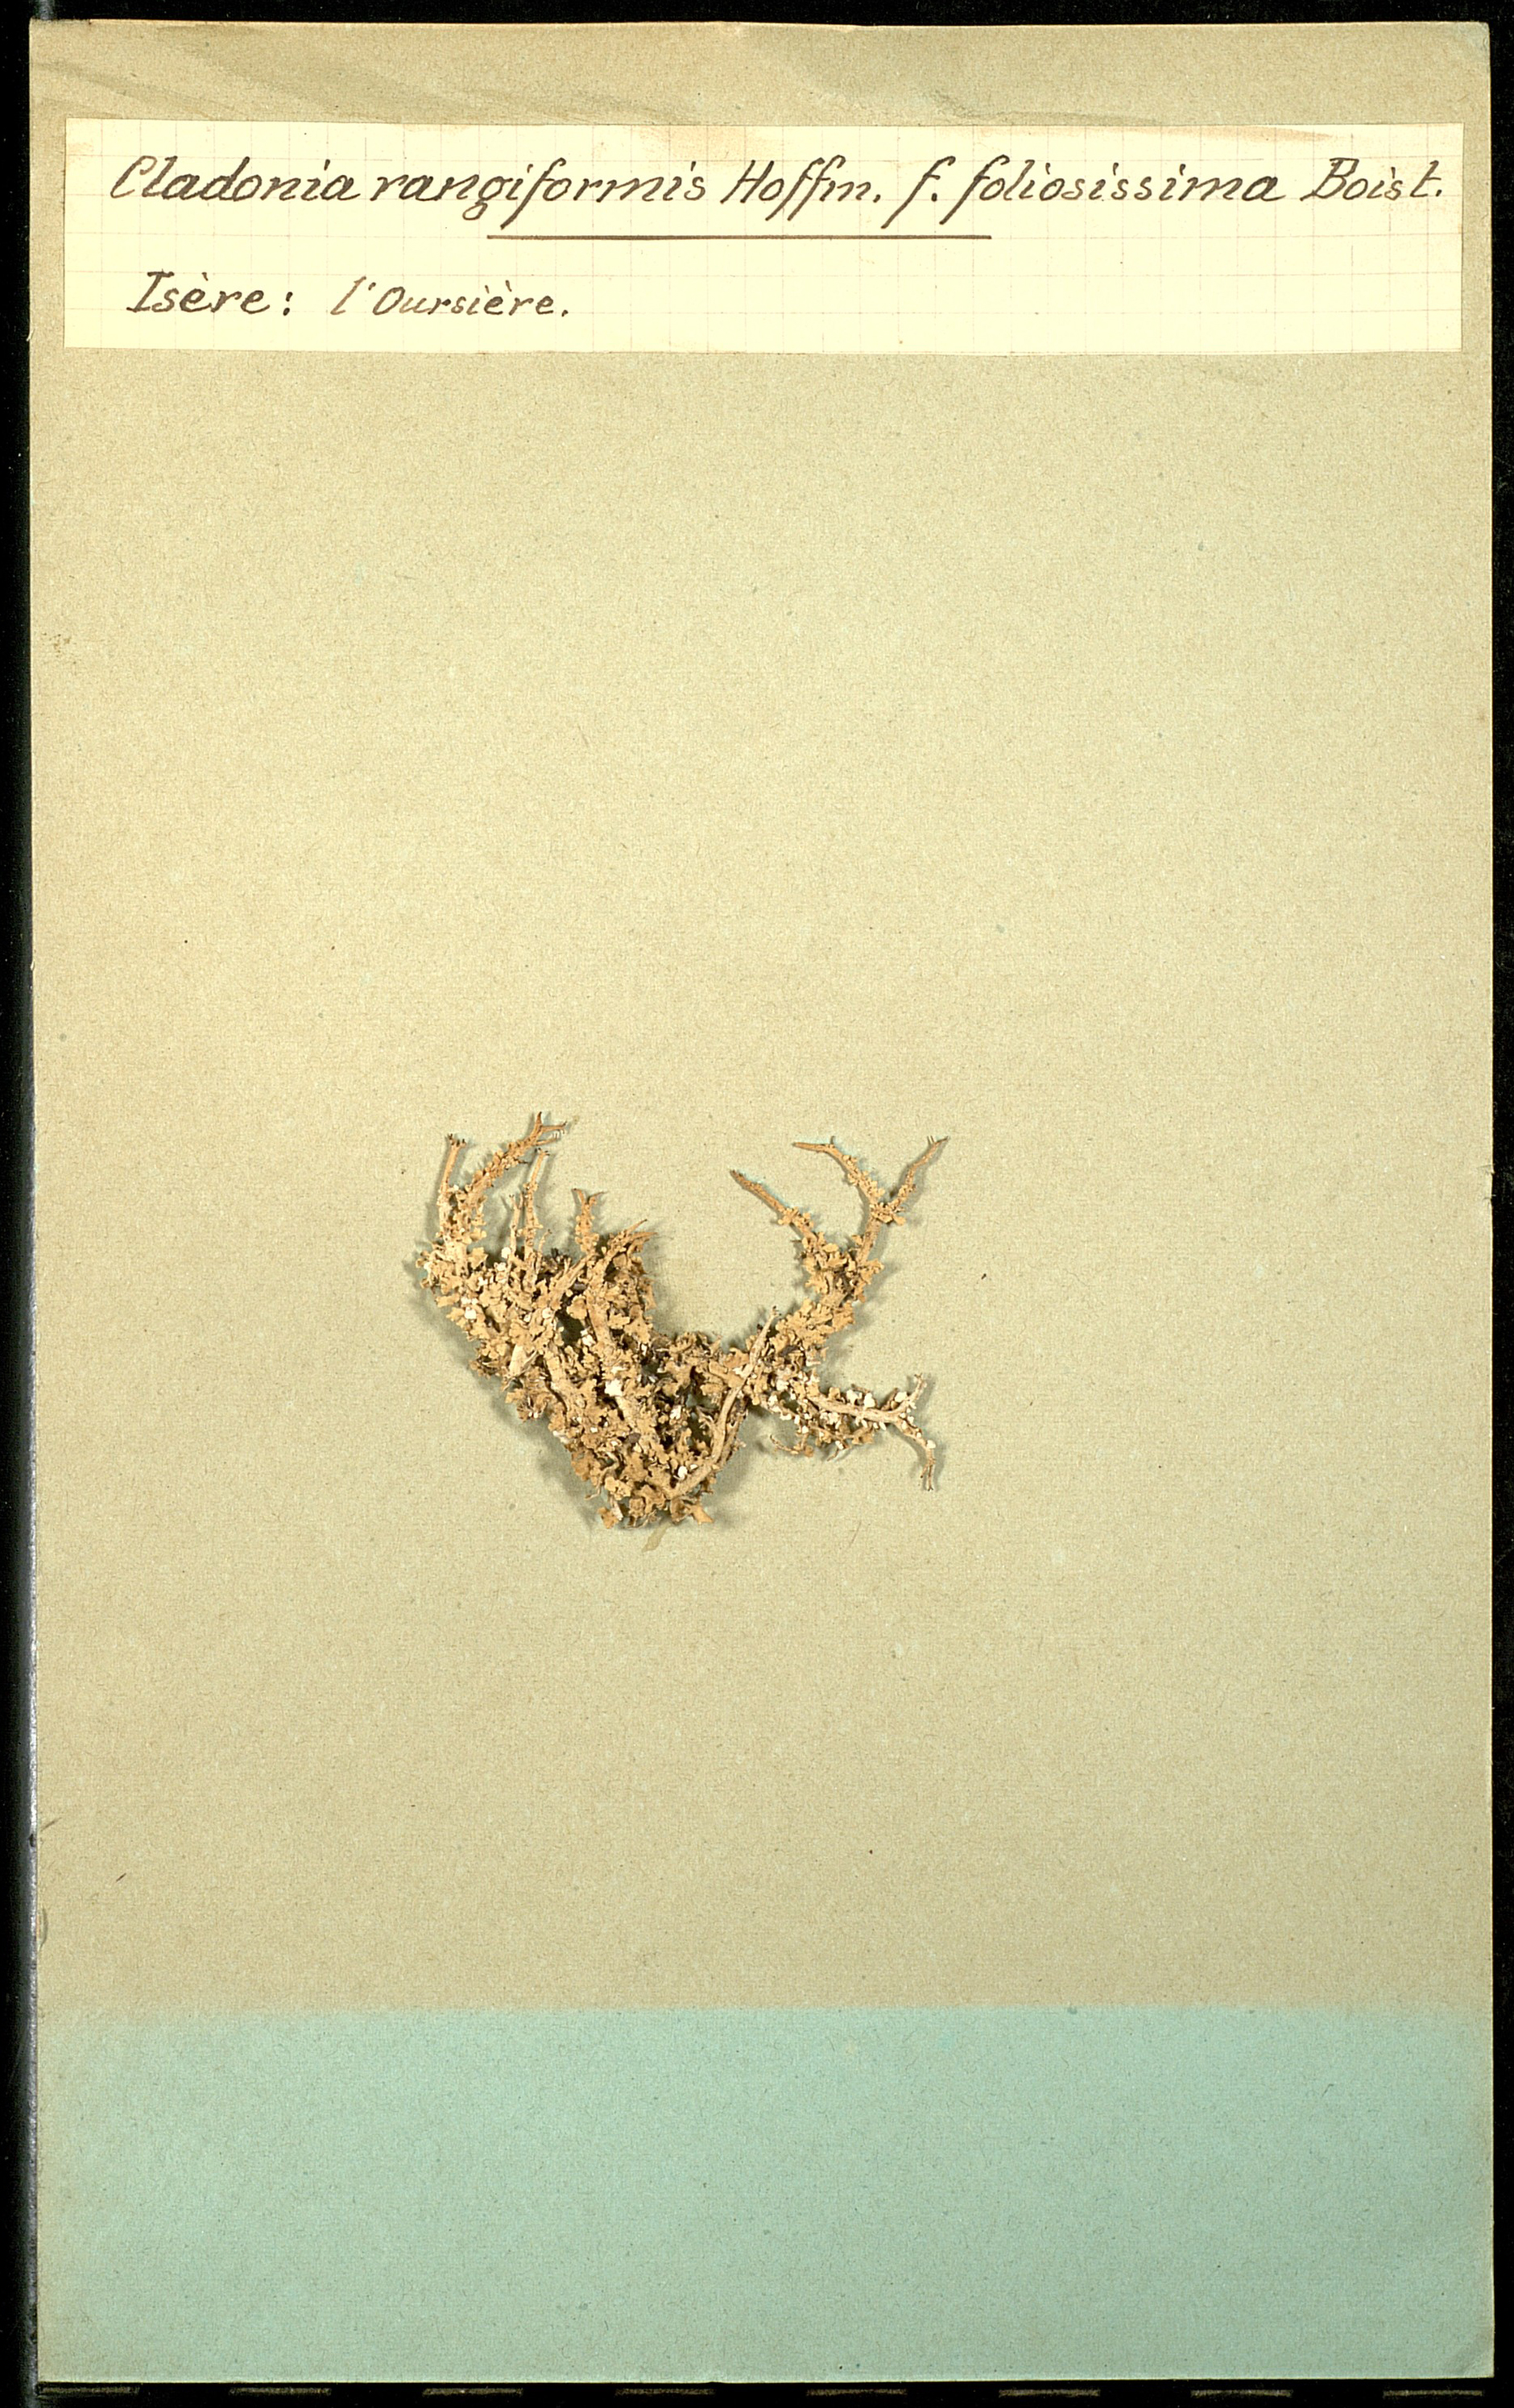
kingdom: Fungi
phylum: Ascomycota
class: Lecanoromycetes
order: Lecanorales
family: Cladoniaceae
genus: Cladonia
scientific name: Cladonia rangiformis
